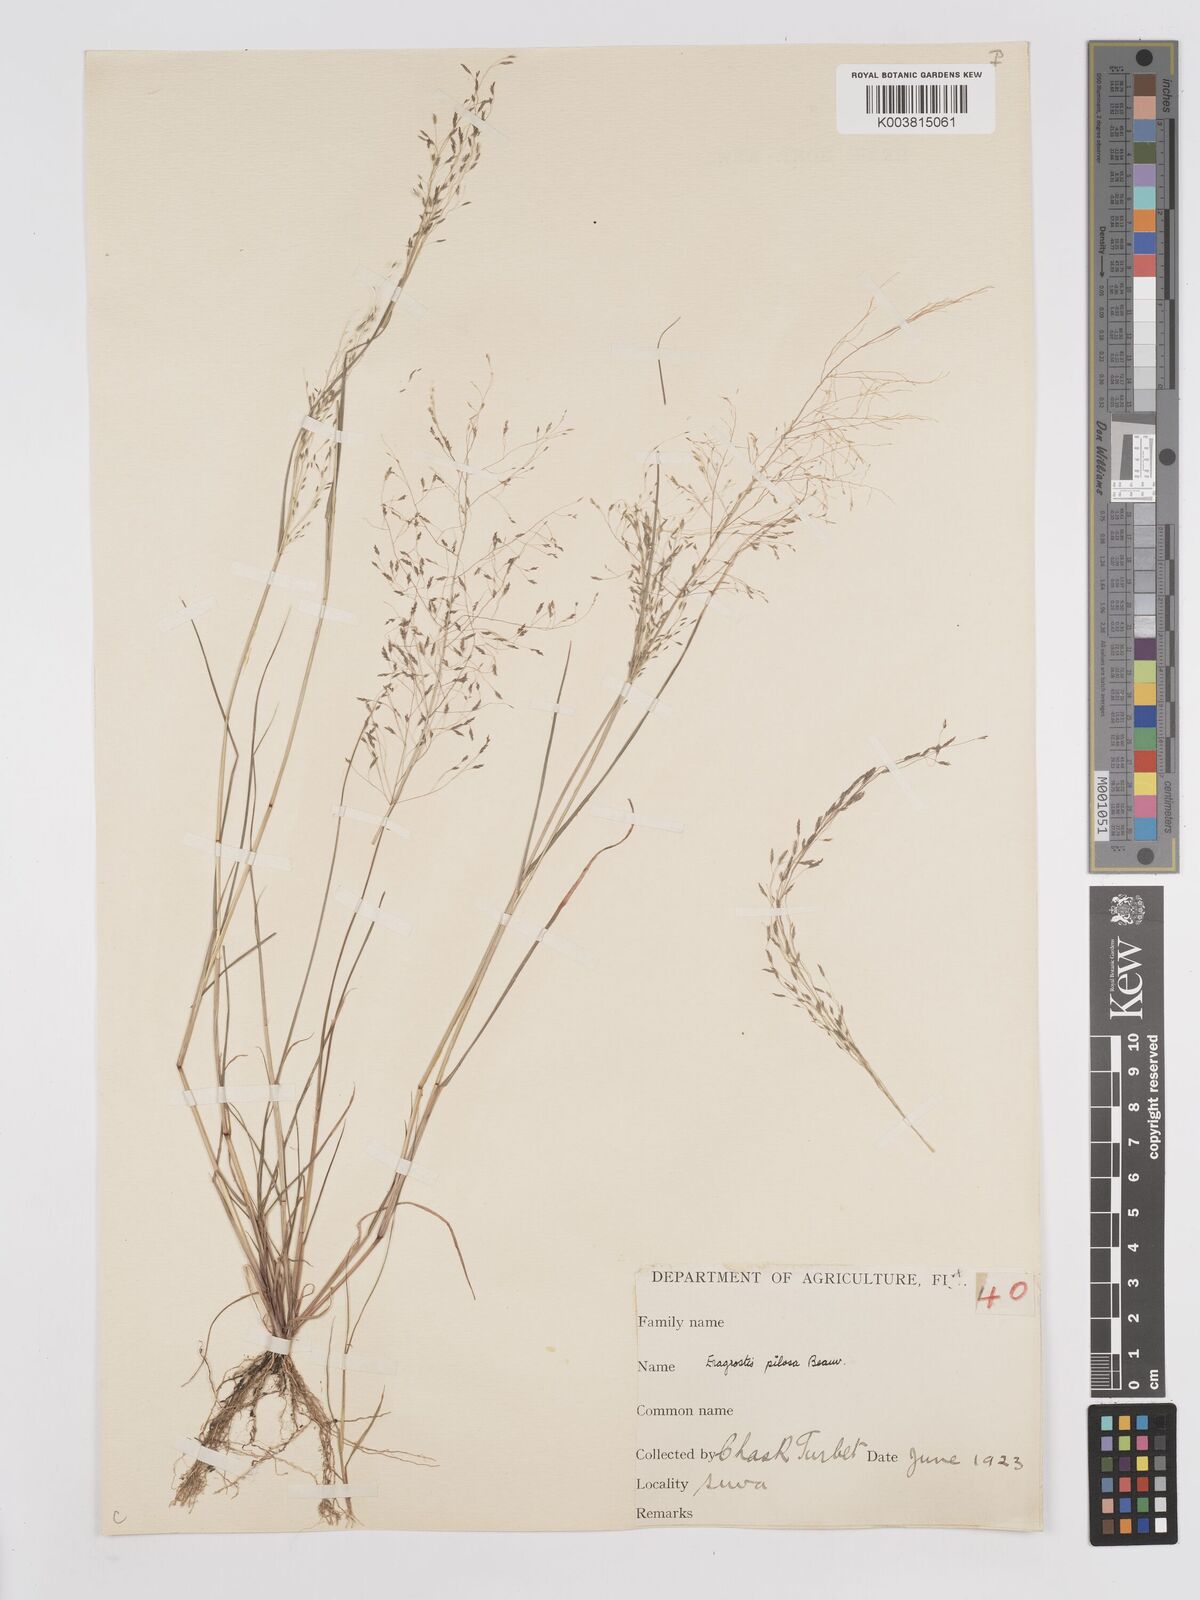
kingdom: Plantae
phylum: Tracheophyta
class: Liliopsida
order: Poales
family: Poaceae
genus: Eragrostis
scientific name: Eragrostis pilosa
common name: Indian lovegrass
